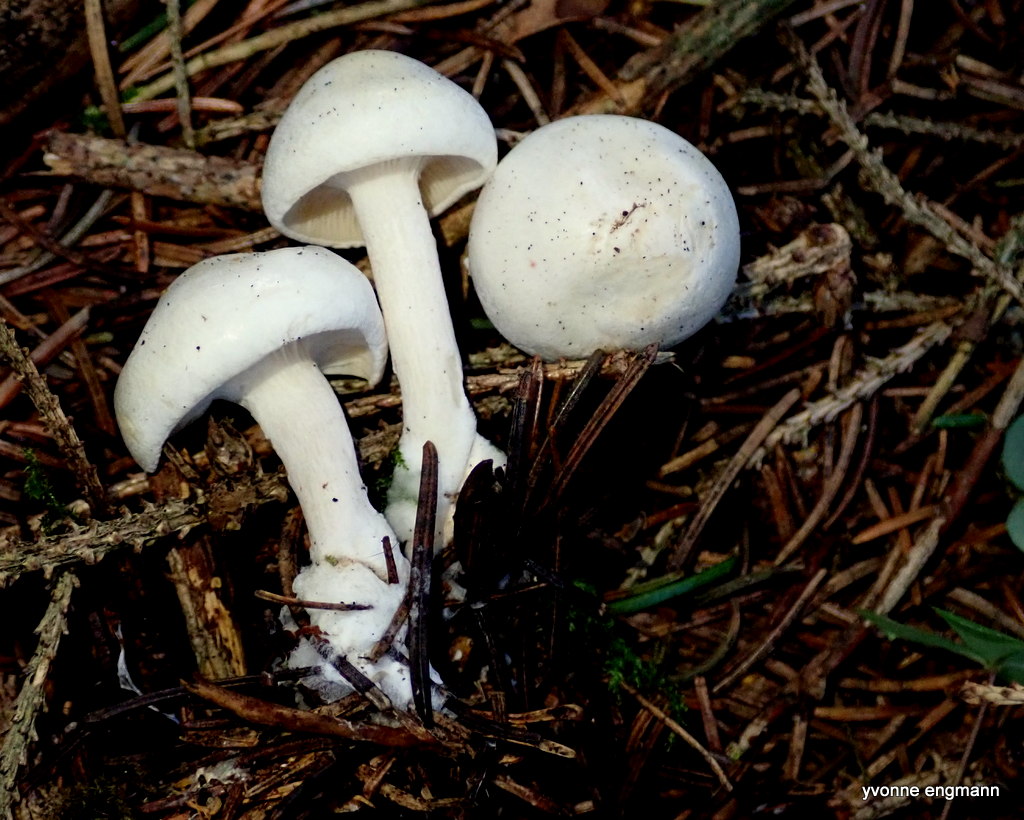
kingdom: Fungi
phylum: Basidiomycota
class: Agaricomycetes
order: Agaricales
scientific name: Agaricales
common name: champignonordenen
